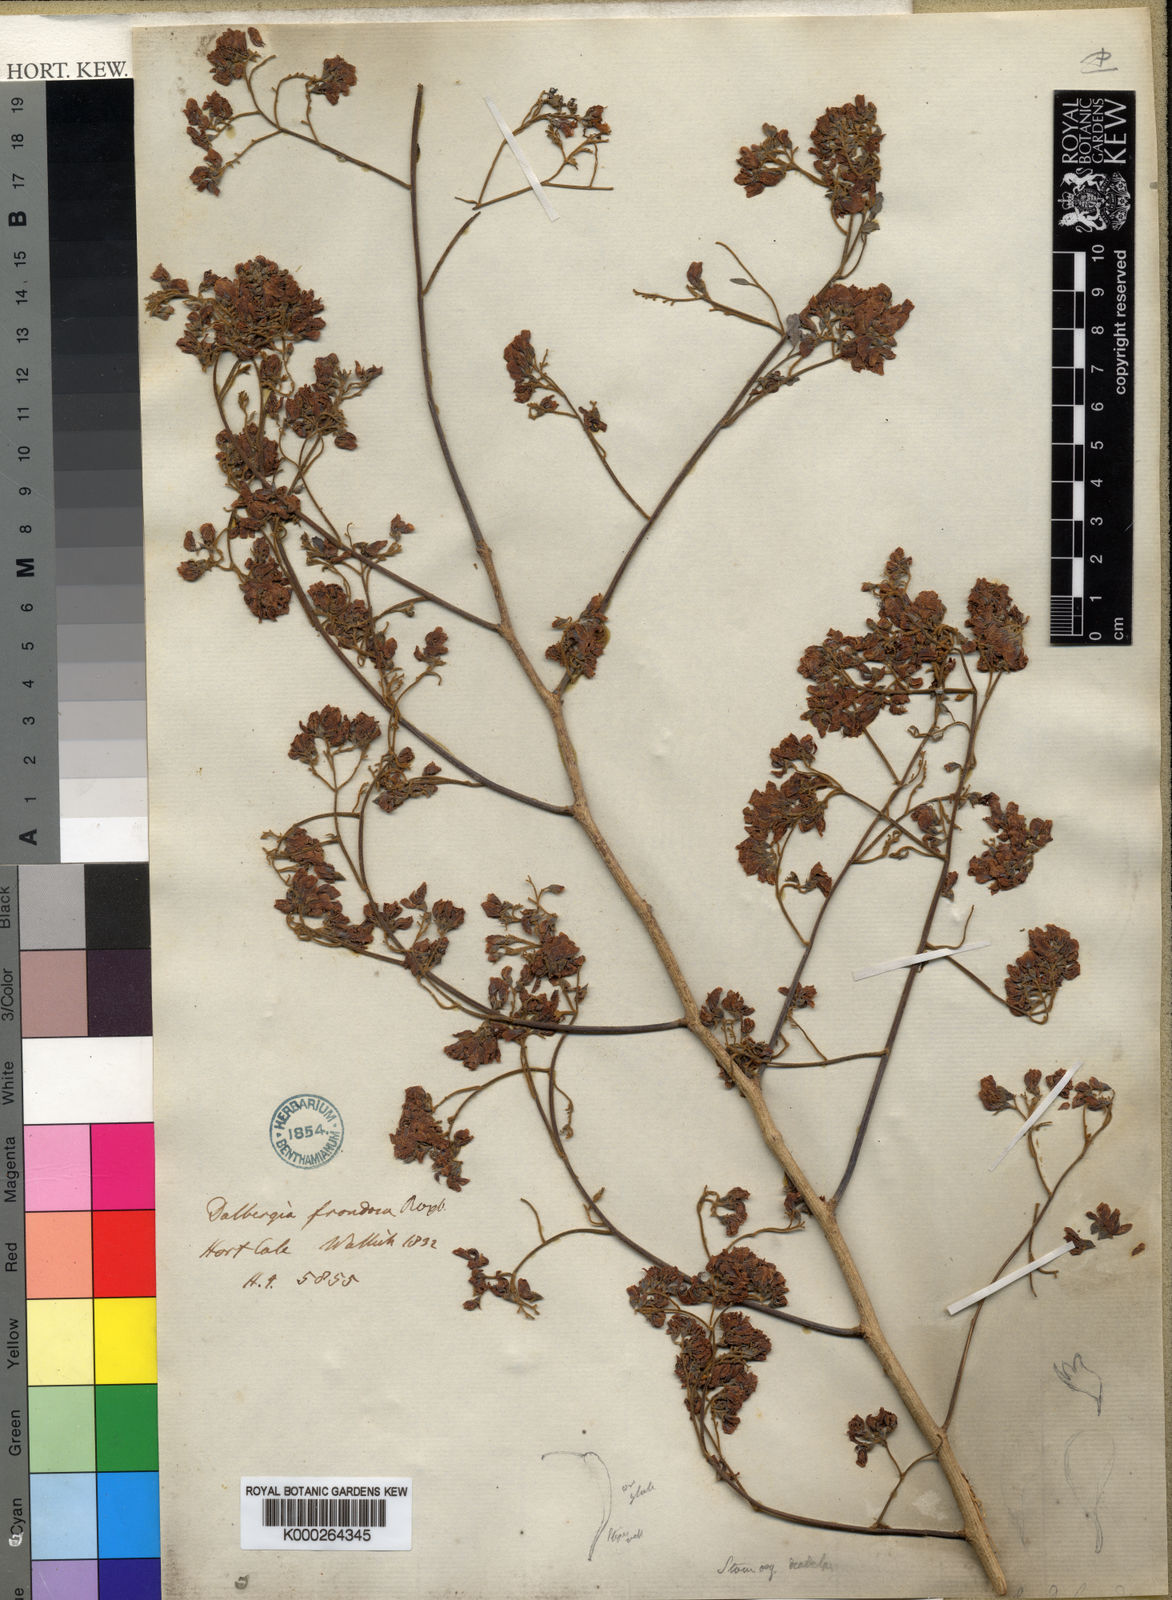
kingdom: Plantae
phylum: Tracheophyta
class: Magnoliopsida
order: Fabales
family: Fabaceae
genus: Dalbergia
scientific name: Dalbergia lanceolaria
